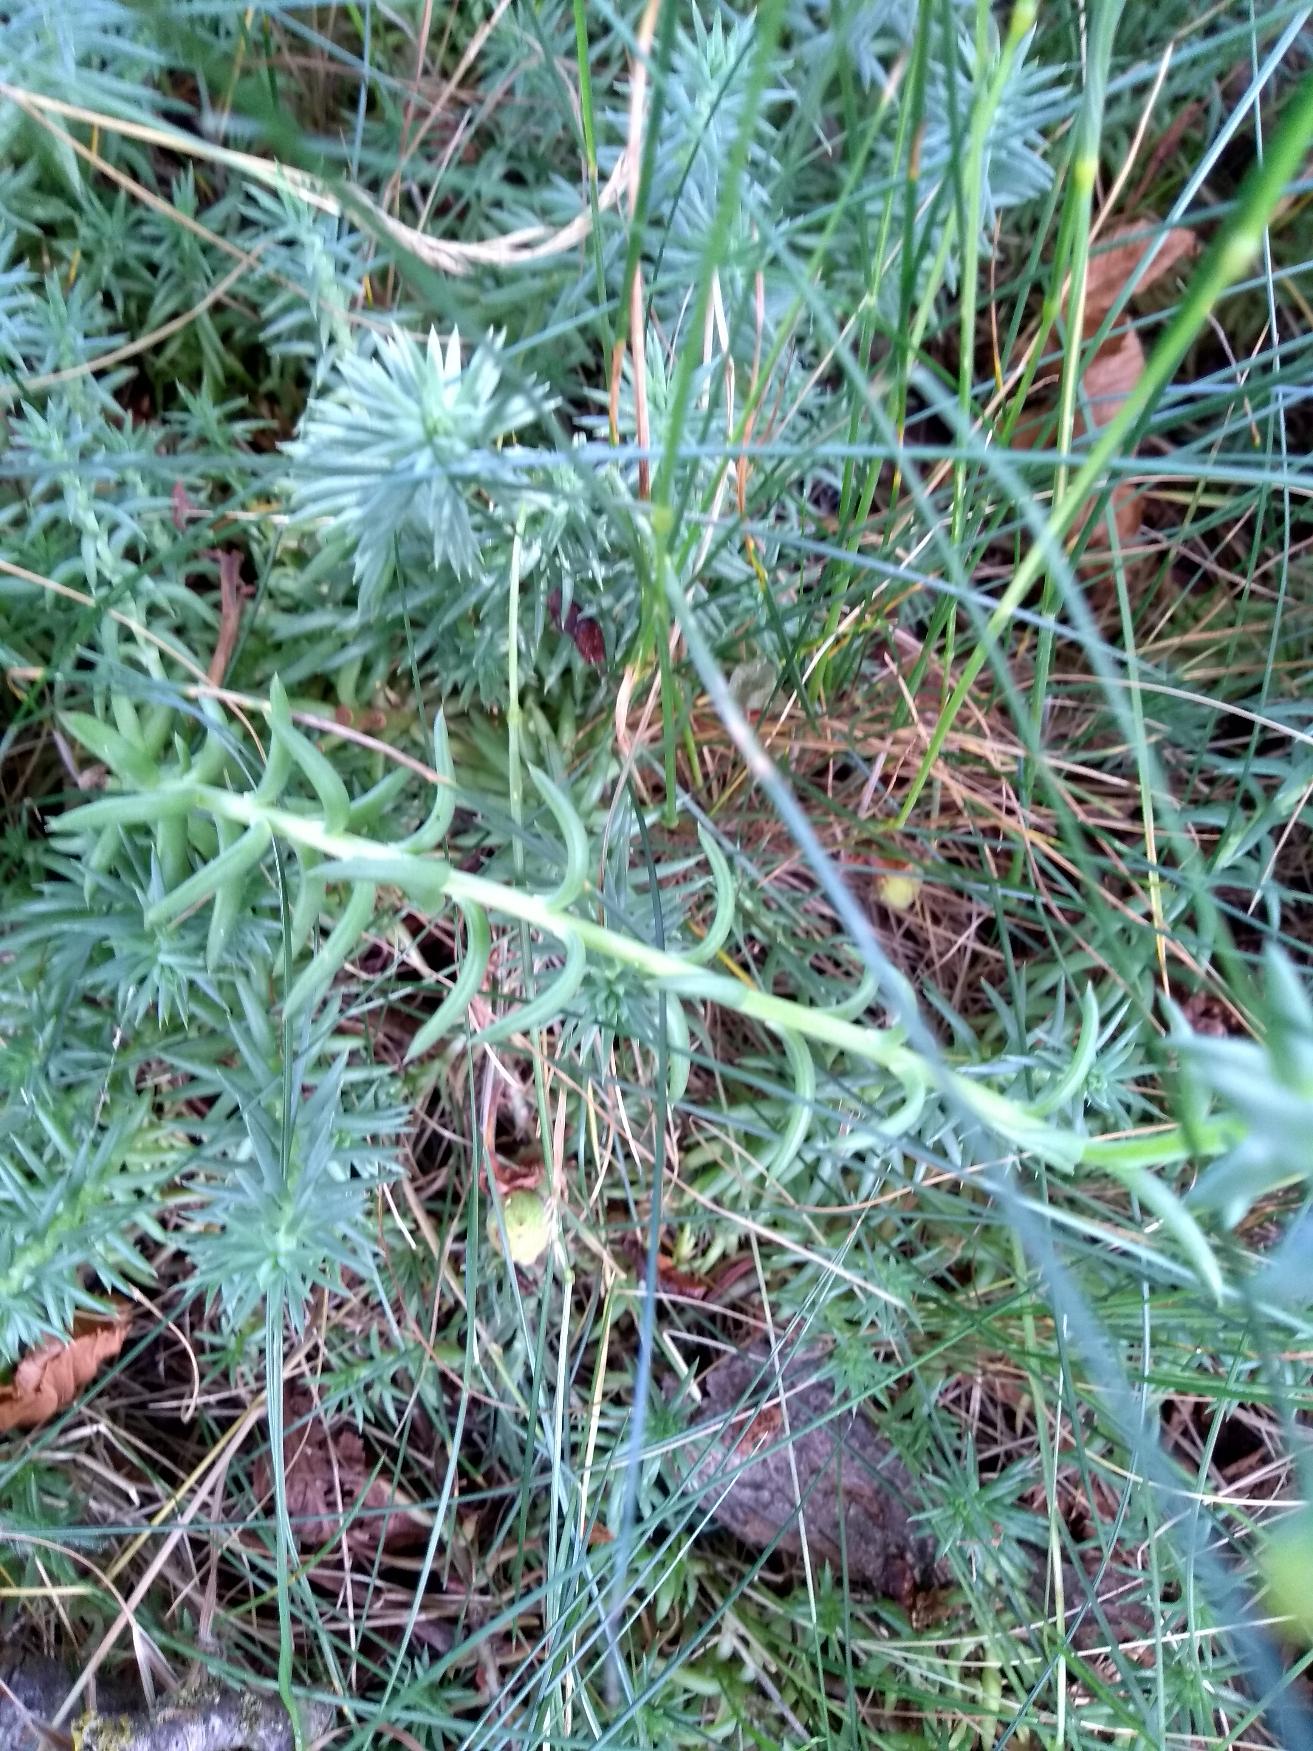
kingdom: Plantae
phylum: Tracheophyta
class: Magnoliopsida
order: Saxifragales
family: Crassulaceae
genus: Petrosedum
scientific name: Petrosedum rupestre
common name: Bjerg-stenurt
